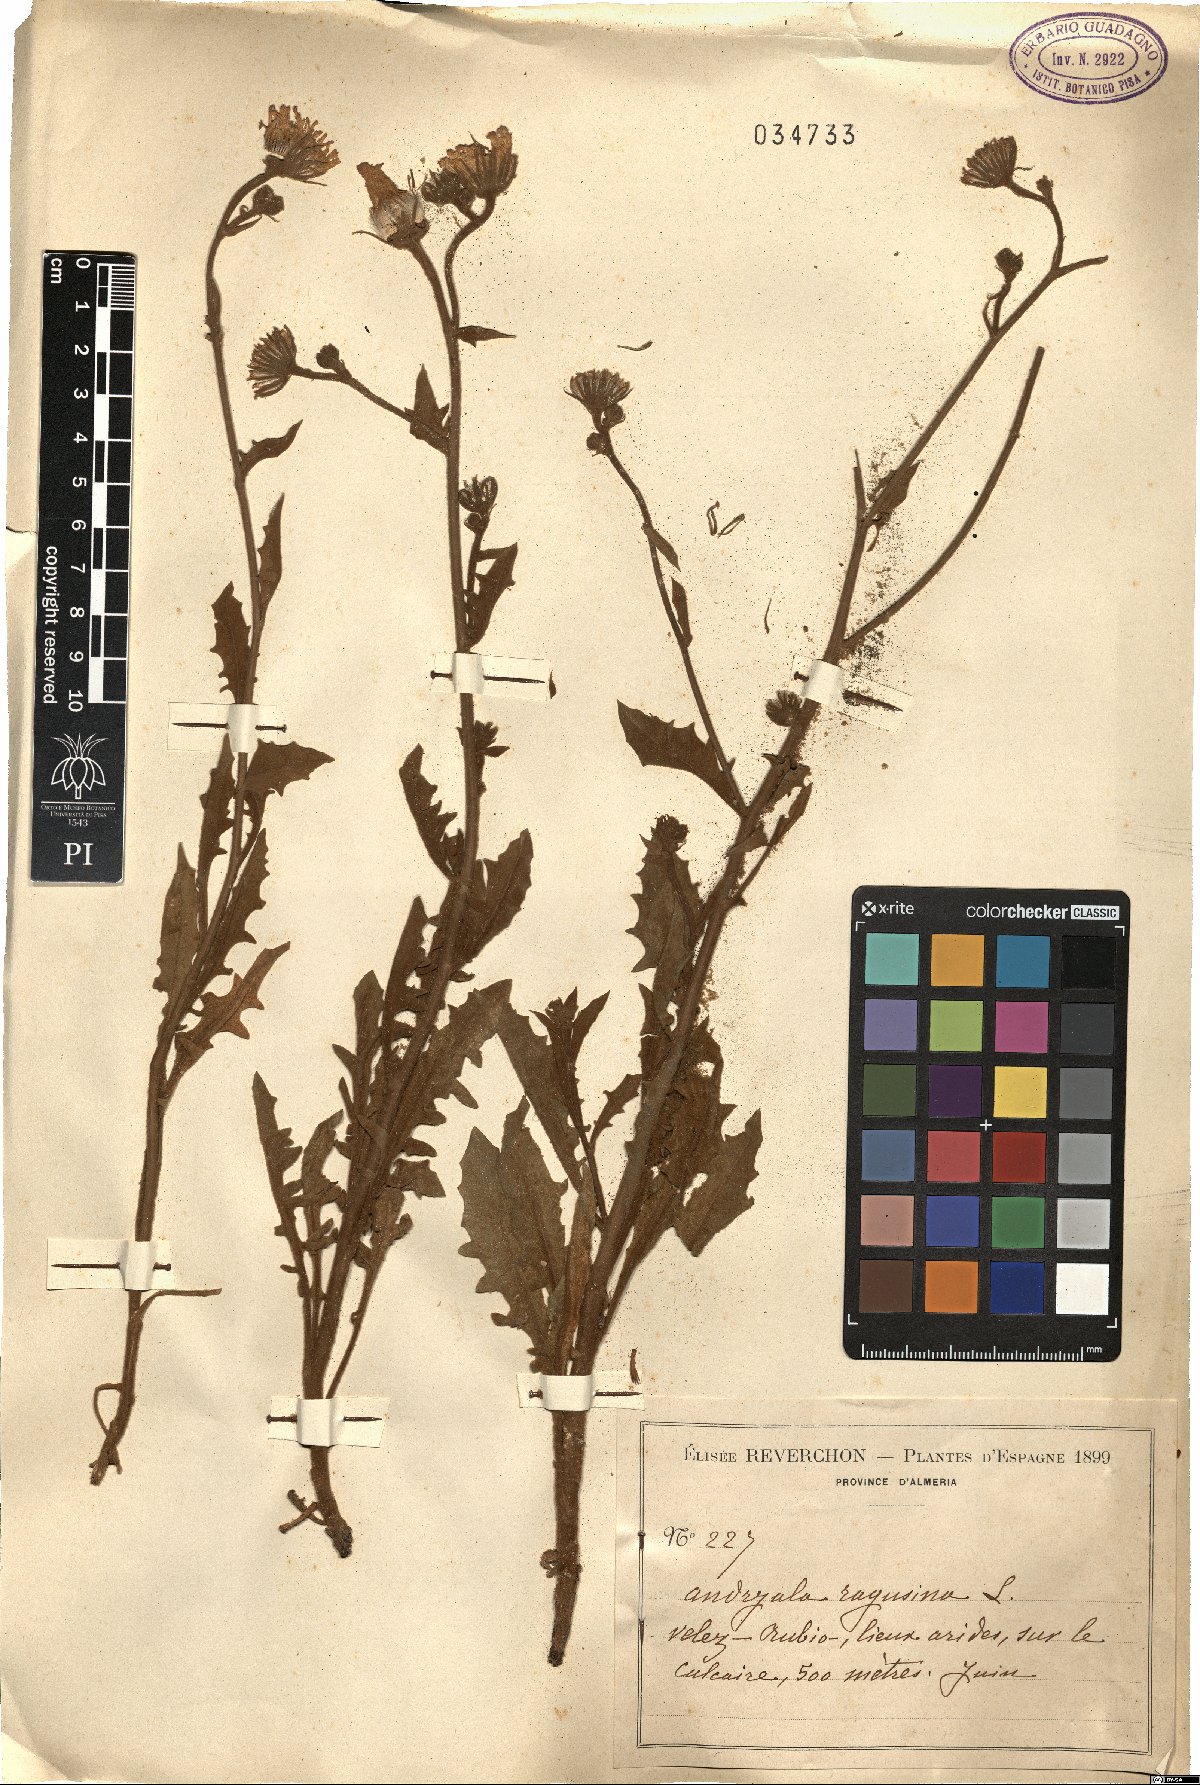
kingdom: Plantae
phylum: Tracheophyta
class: Magnoliopsida
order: Asterales
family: Asteraceae
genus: Andryala
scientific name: Andryala ragusina
